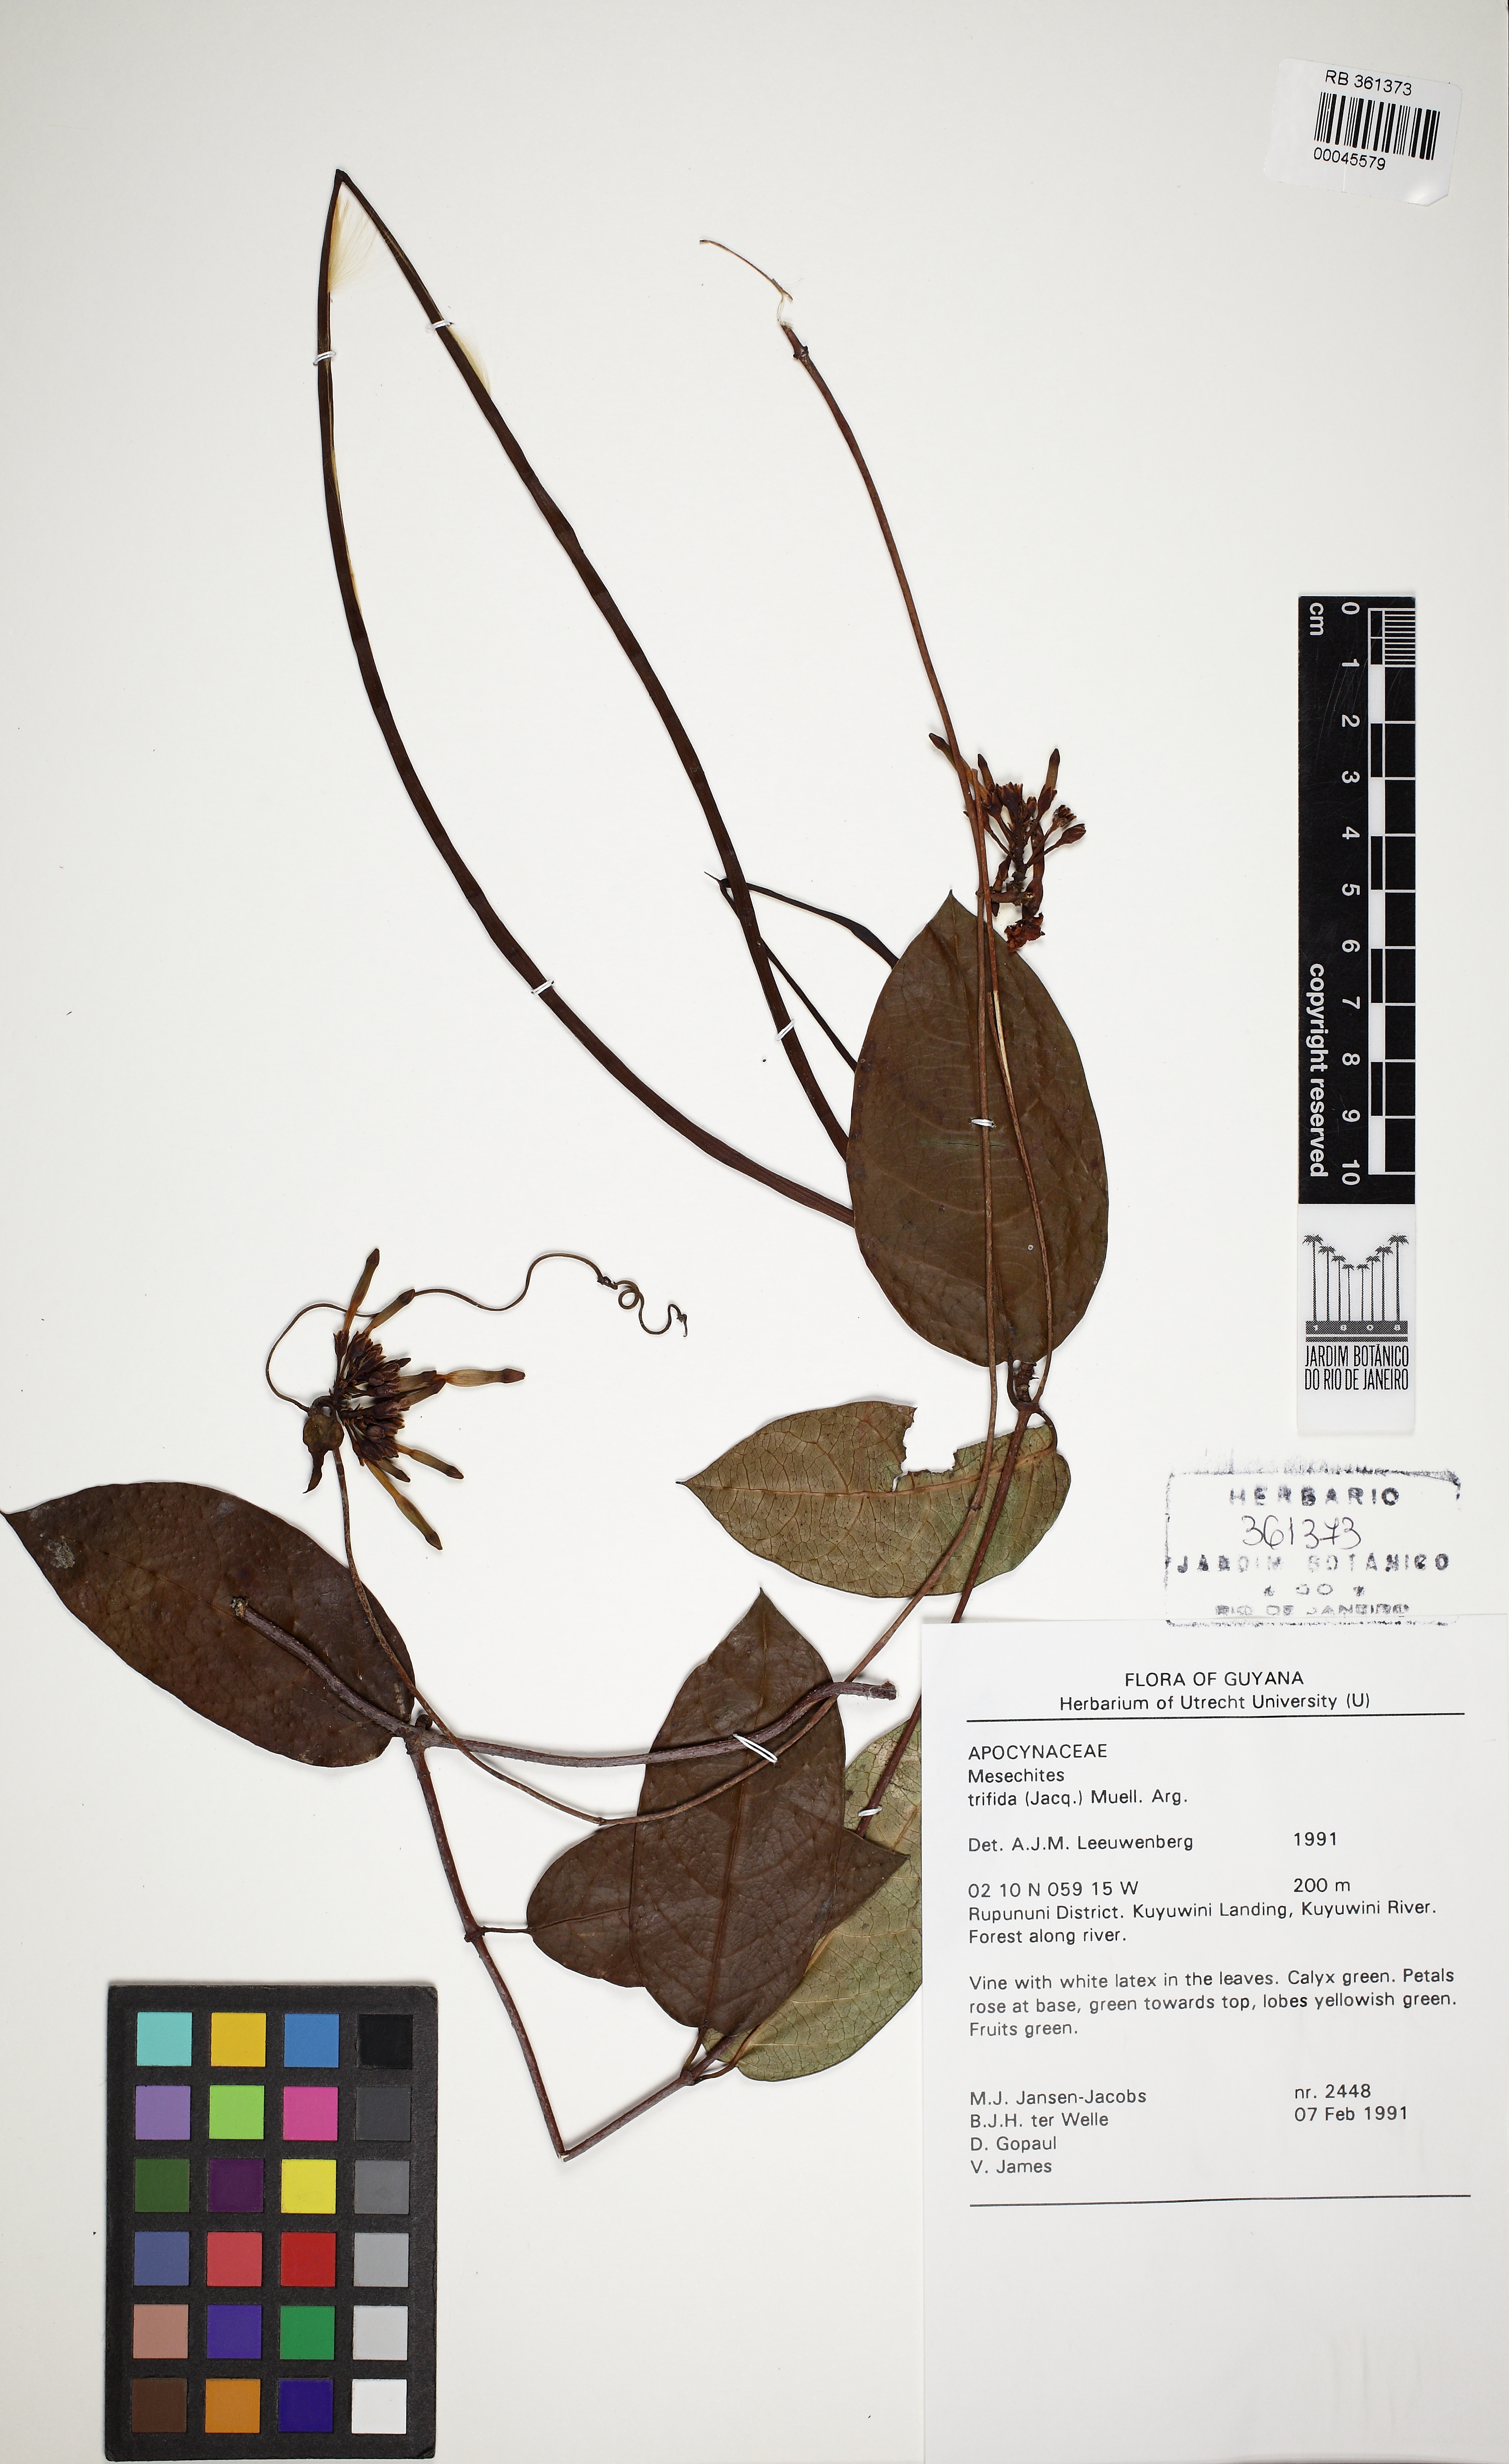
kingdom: Plantae
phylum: Tracheophyta
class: Magnoliopsida
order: Gentianales
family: Apocynaceae
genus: Mesechites
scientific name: Mesechites trifidus
